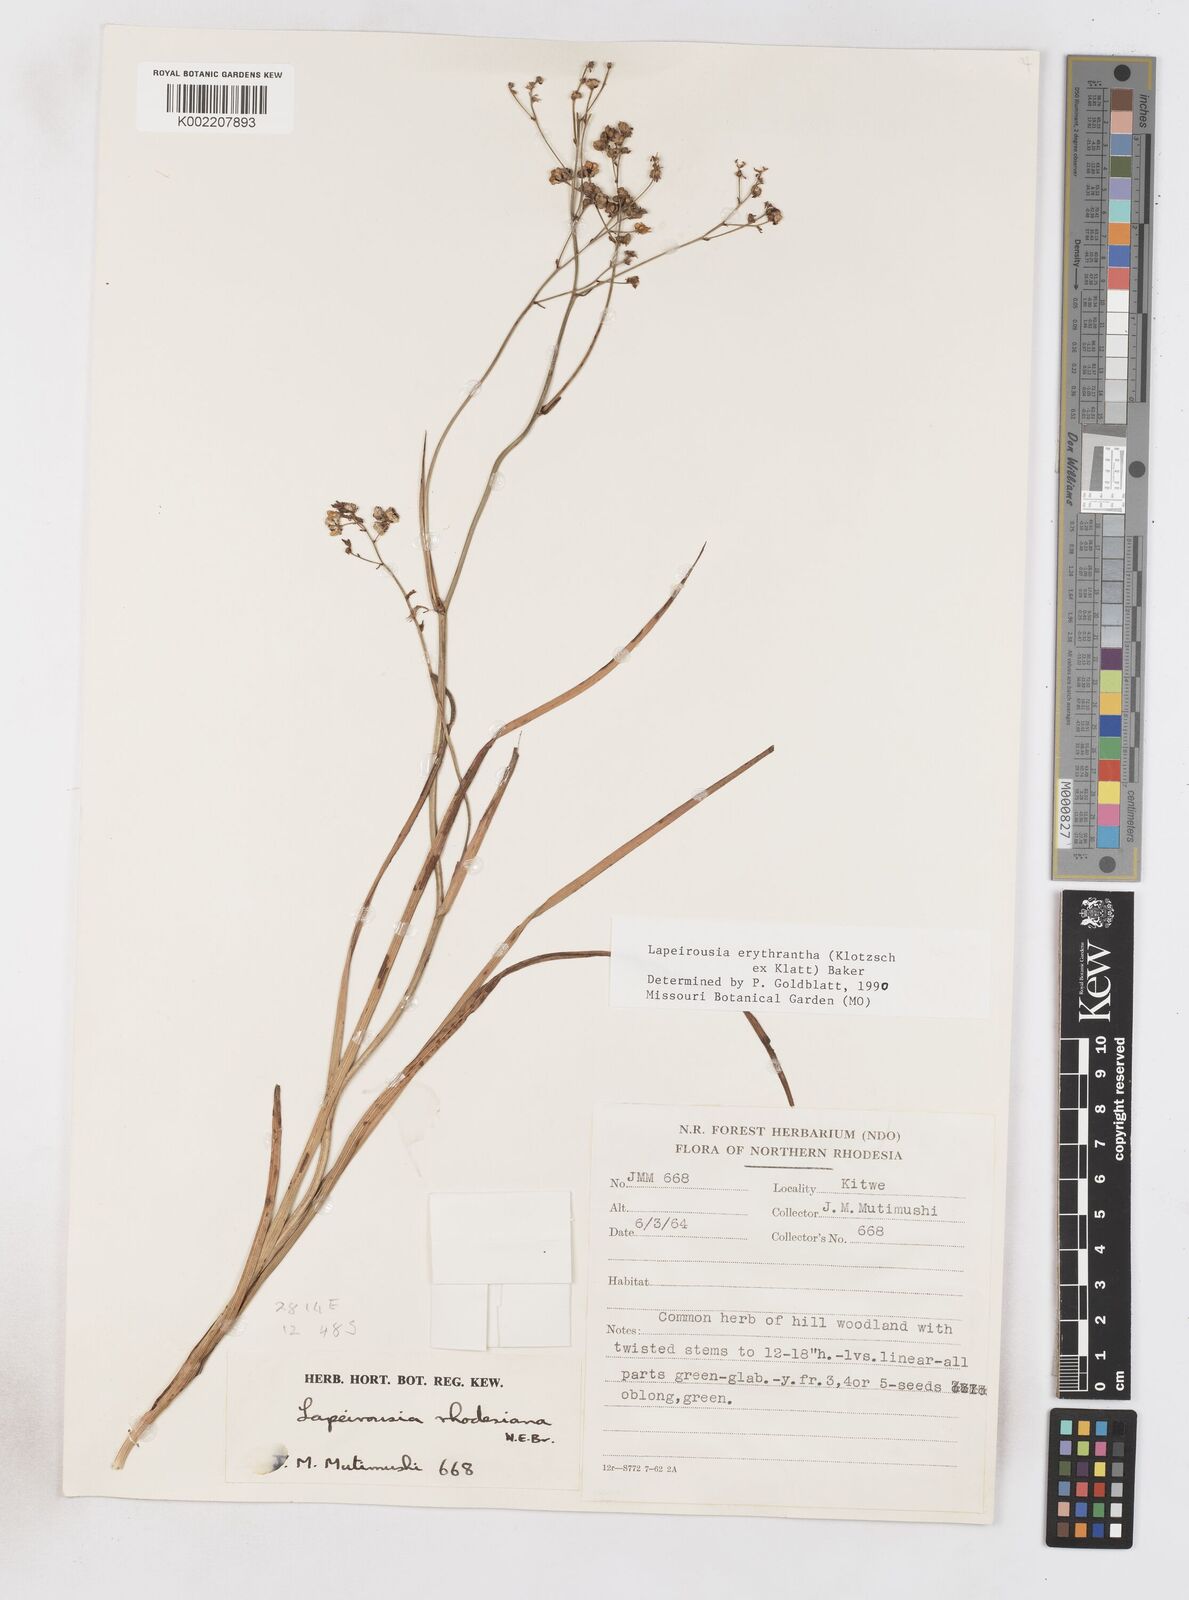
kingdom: Plantae
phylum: Tracheophyta
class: Liliopsida
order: Asparagales
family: Iridaceae
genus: Afrosolen
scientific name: Afrosolen erythranthus
